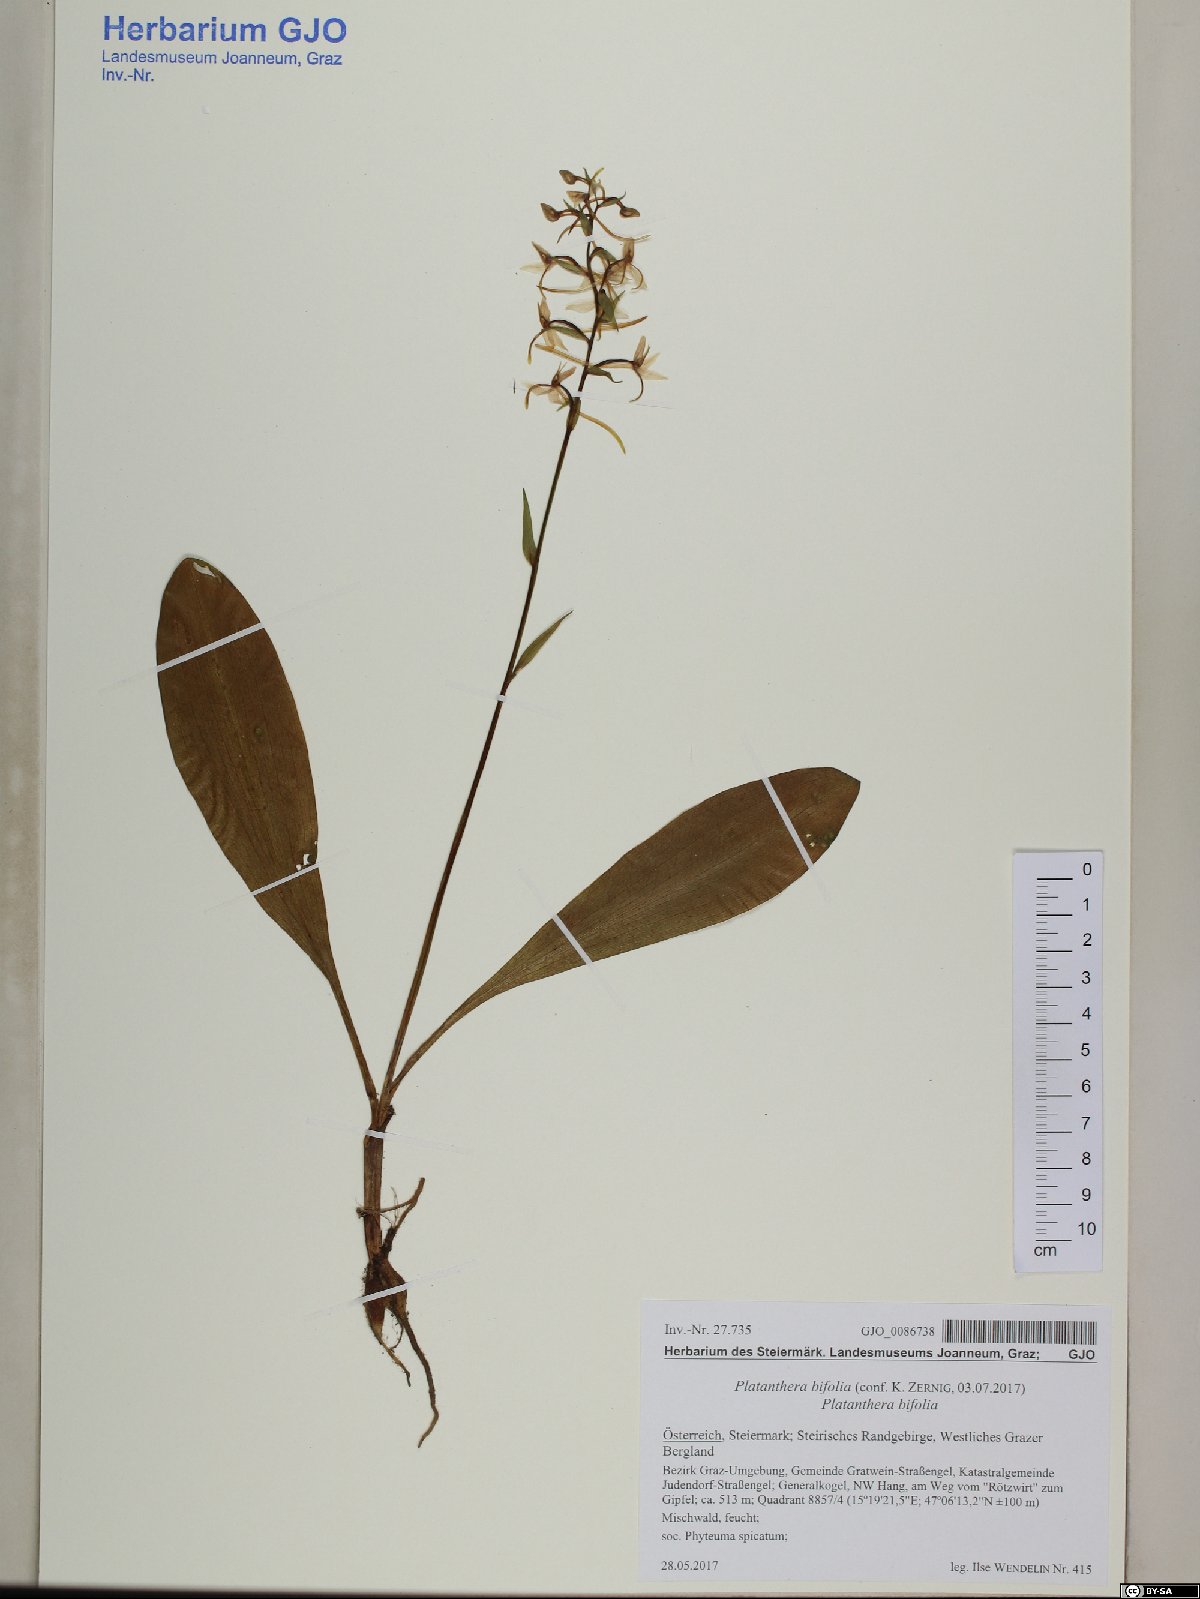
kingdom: Plantae
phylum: Tracheophyta
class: Liliopsida
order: Asparagales
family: Orchidaceae
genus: Platanthera
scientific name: Platanthera bifolia
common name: Lesser butterfly-orchid
